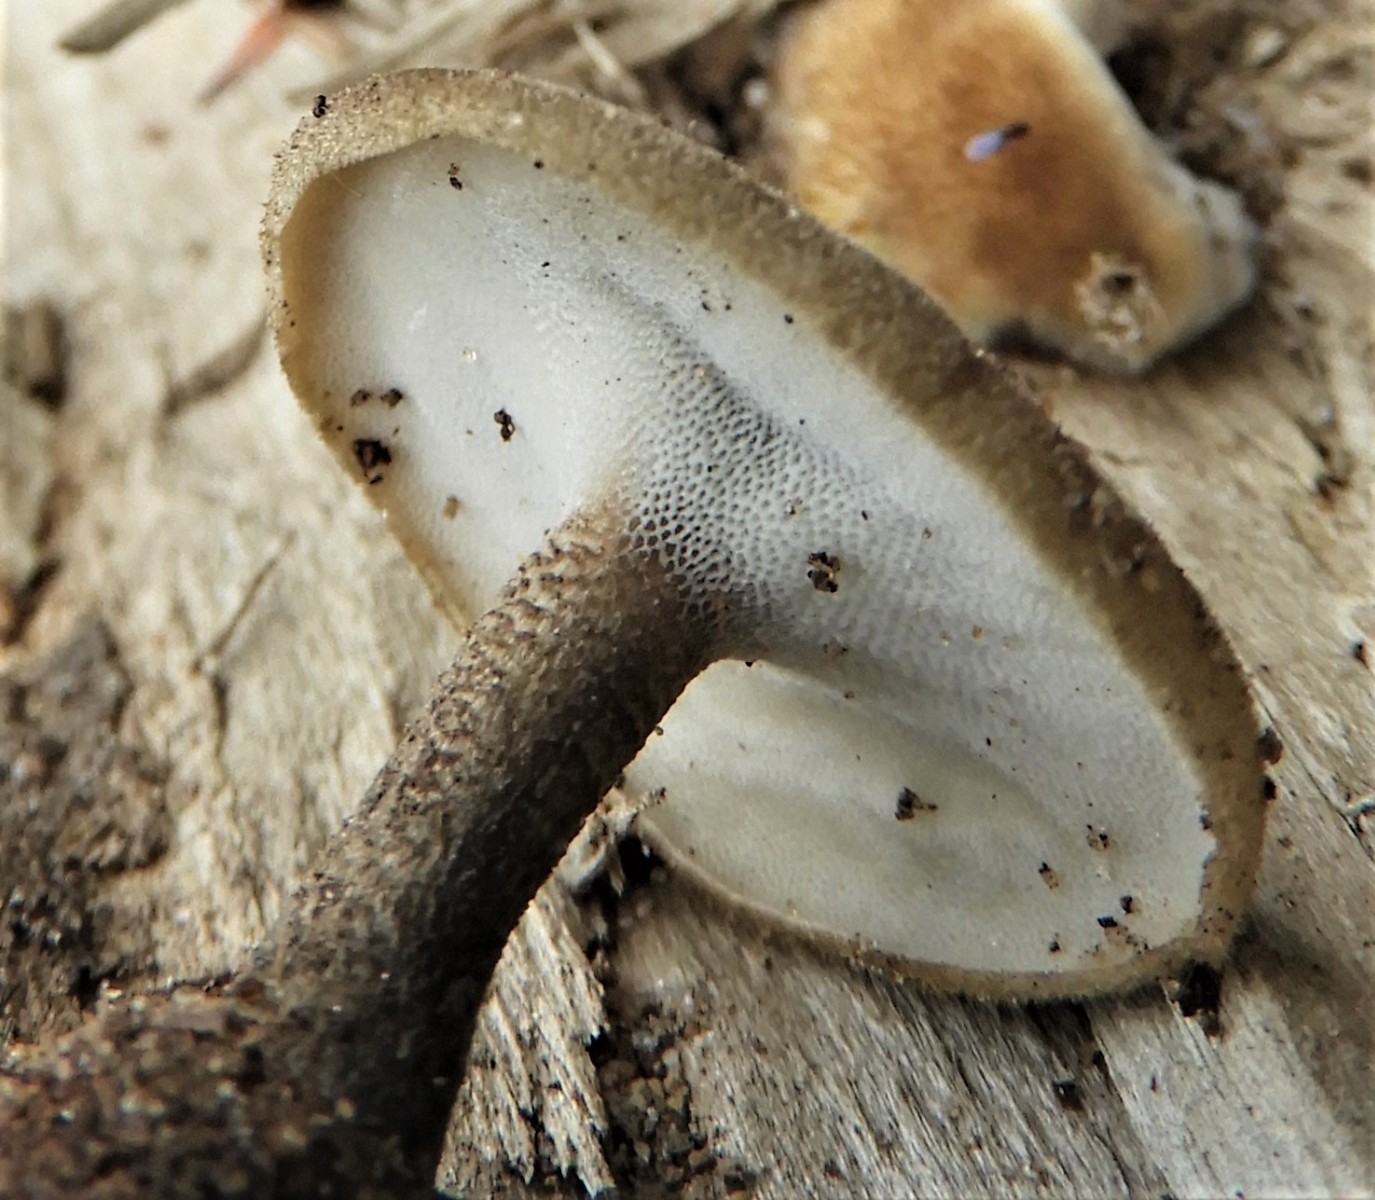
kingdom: Fungi
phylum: Basidiomycota
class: Agaricomycetes
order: Polyporales
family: Polyporaceae
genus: Lentinus
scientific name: Lentinus substrictus
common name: forårs-stilkporesvamp
